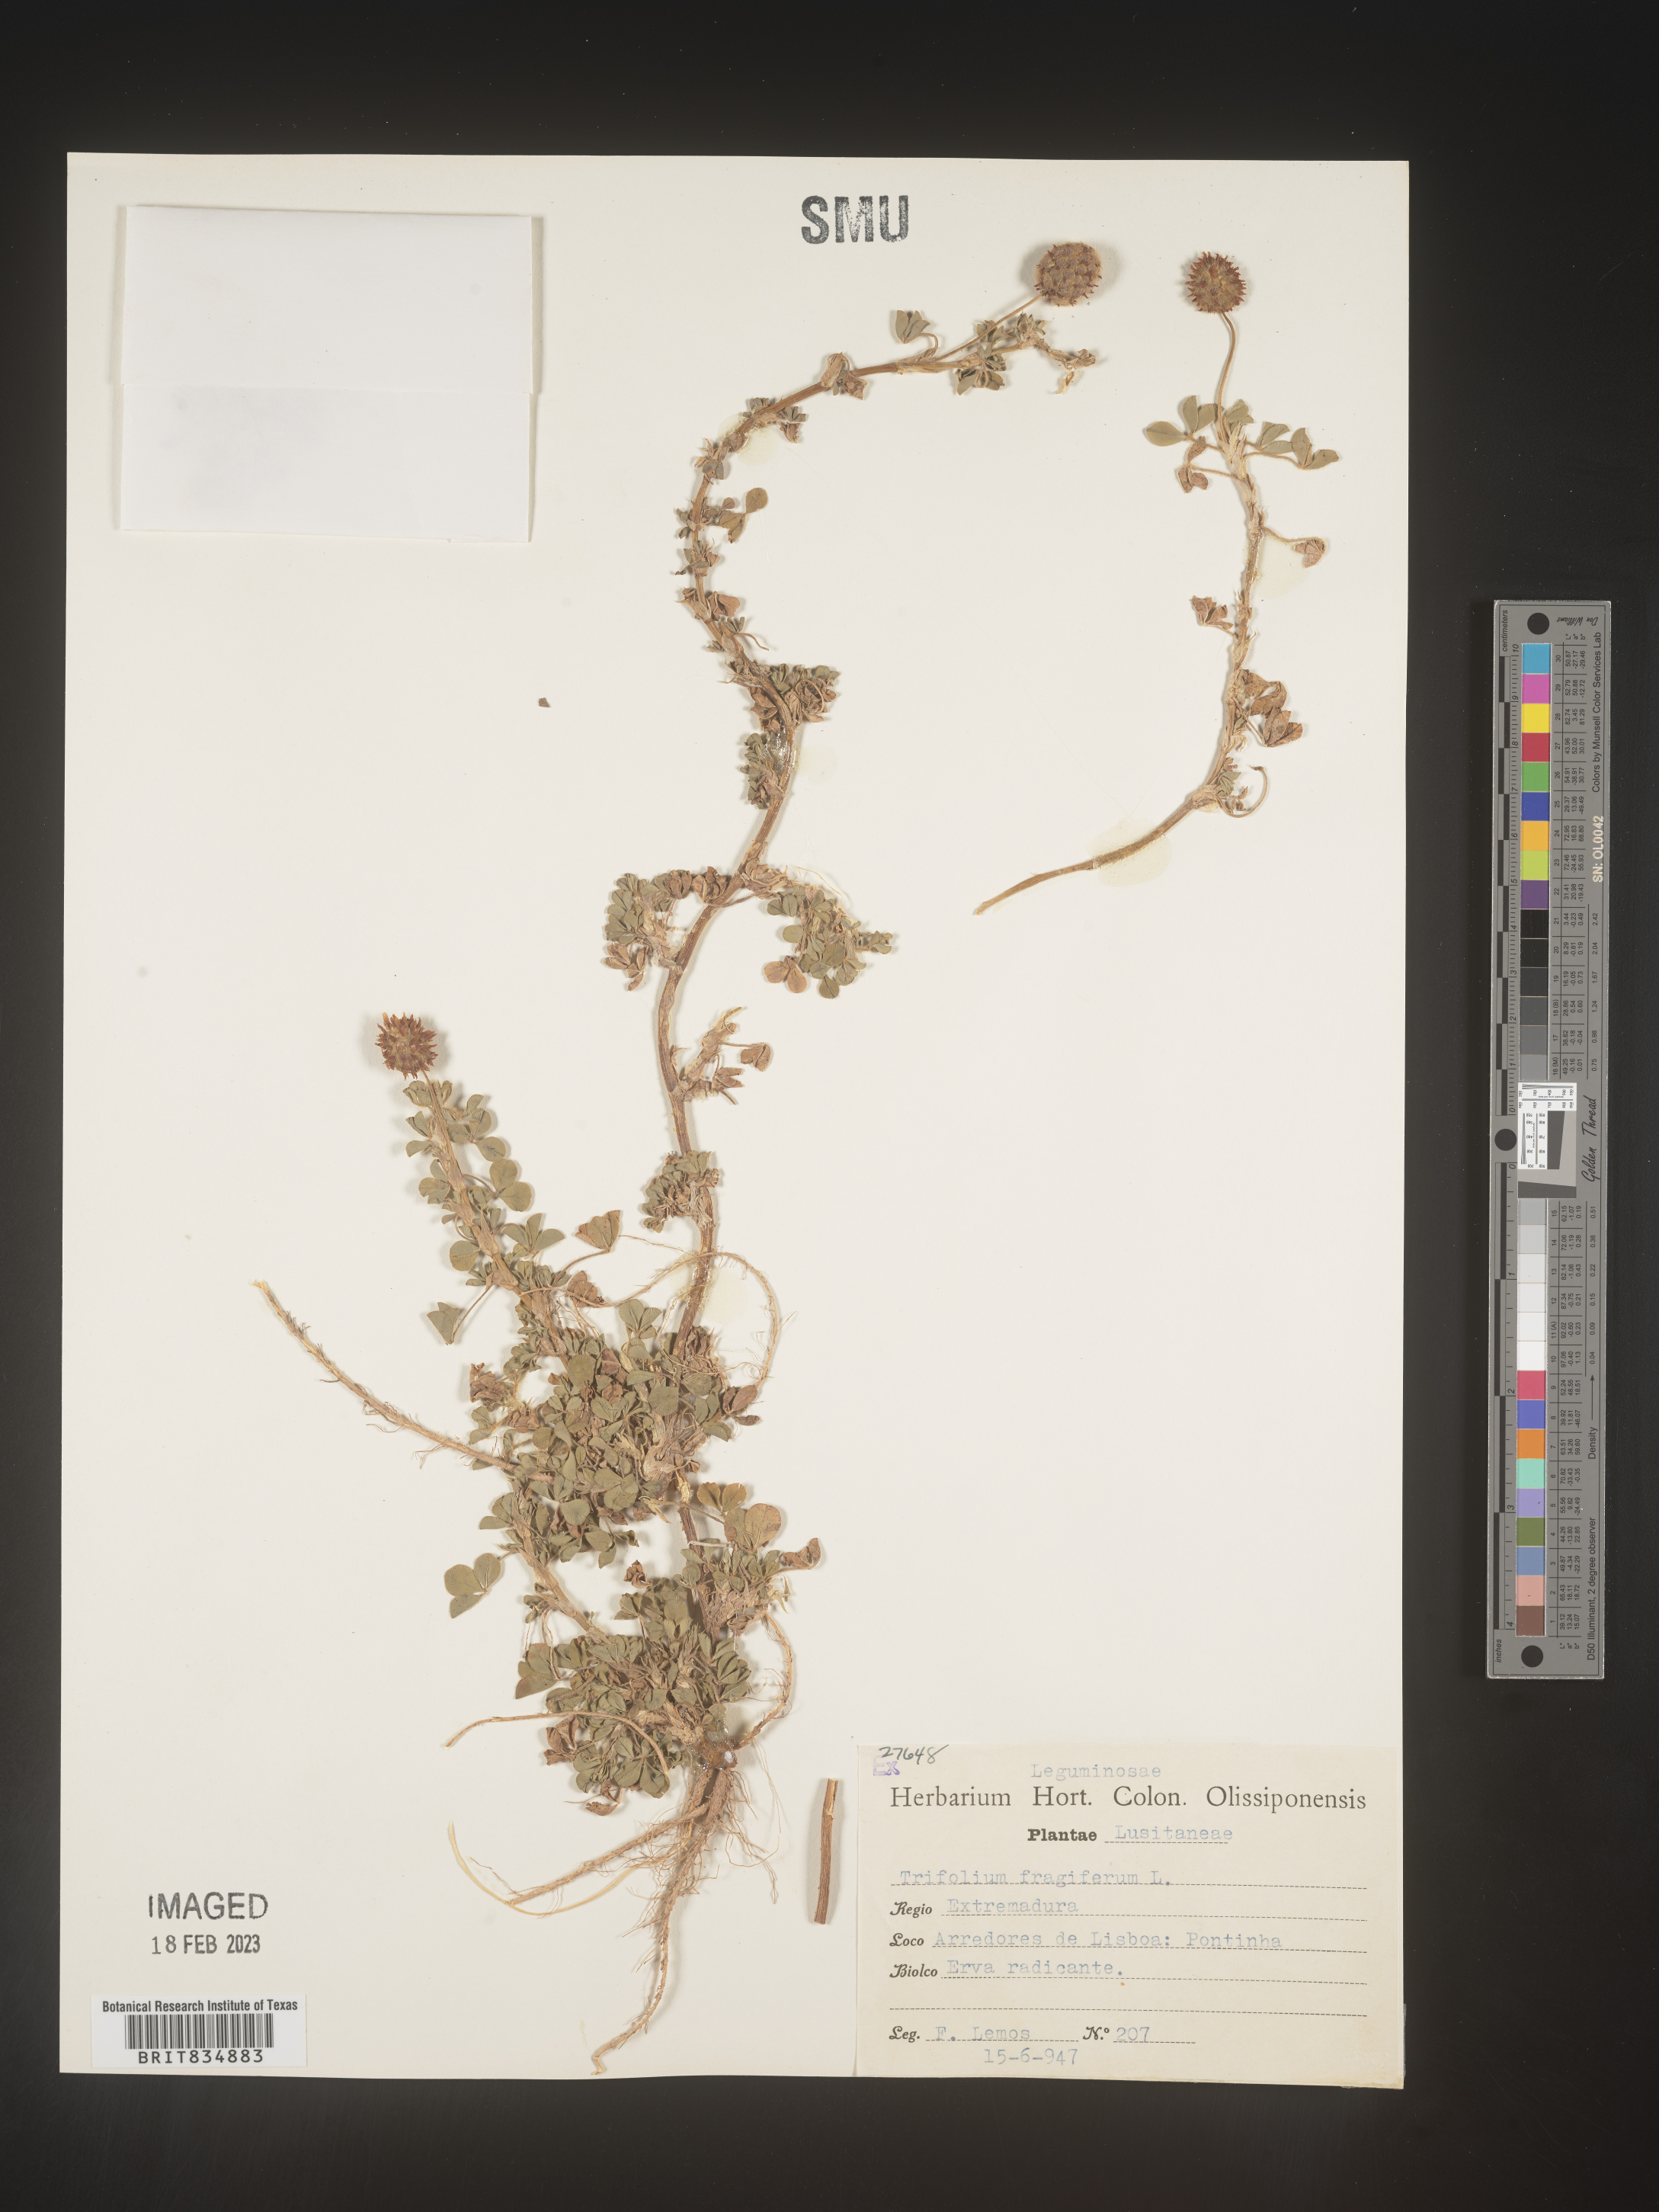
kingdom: Plantae
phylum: Tracheophyta
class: Magnoliopsida
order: Fabales
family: Fabaceae
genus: Trifolium
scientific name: Trifolium
